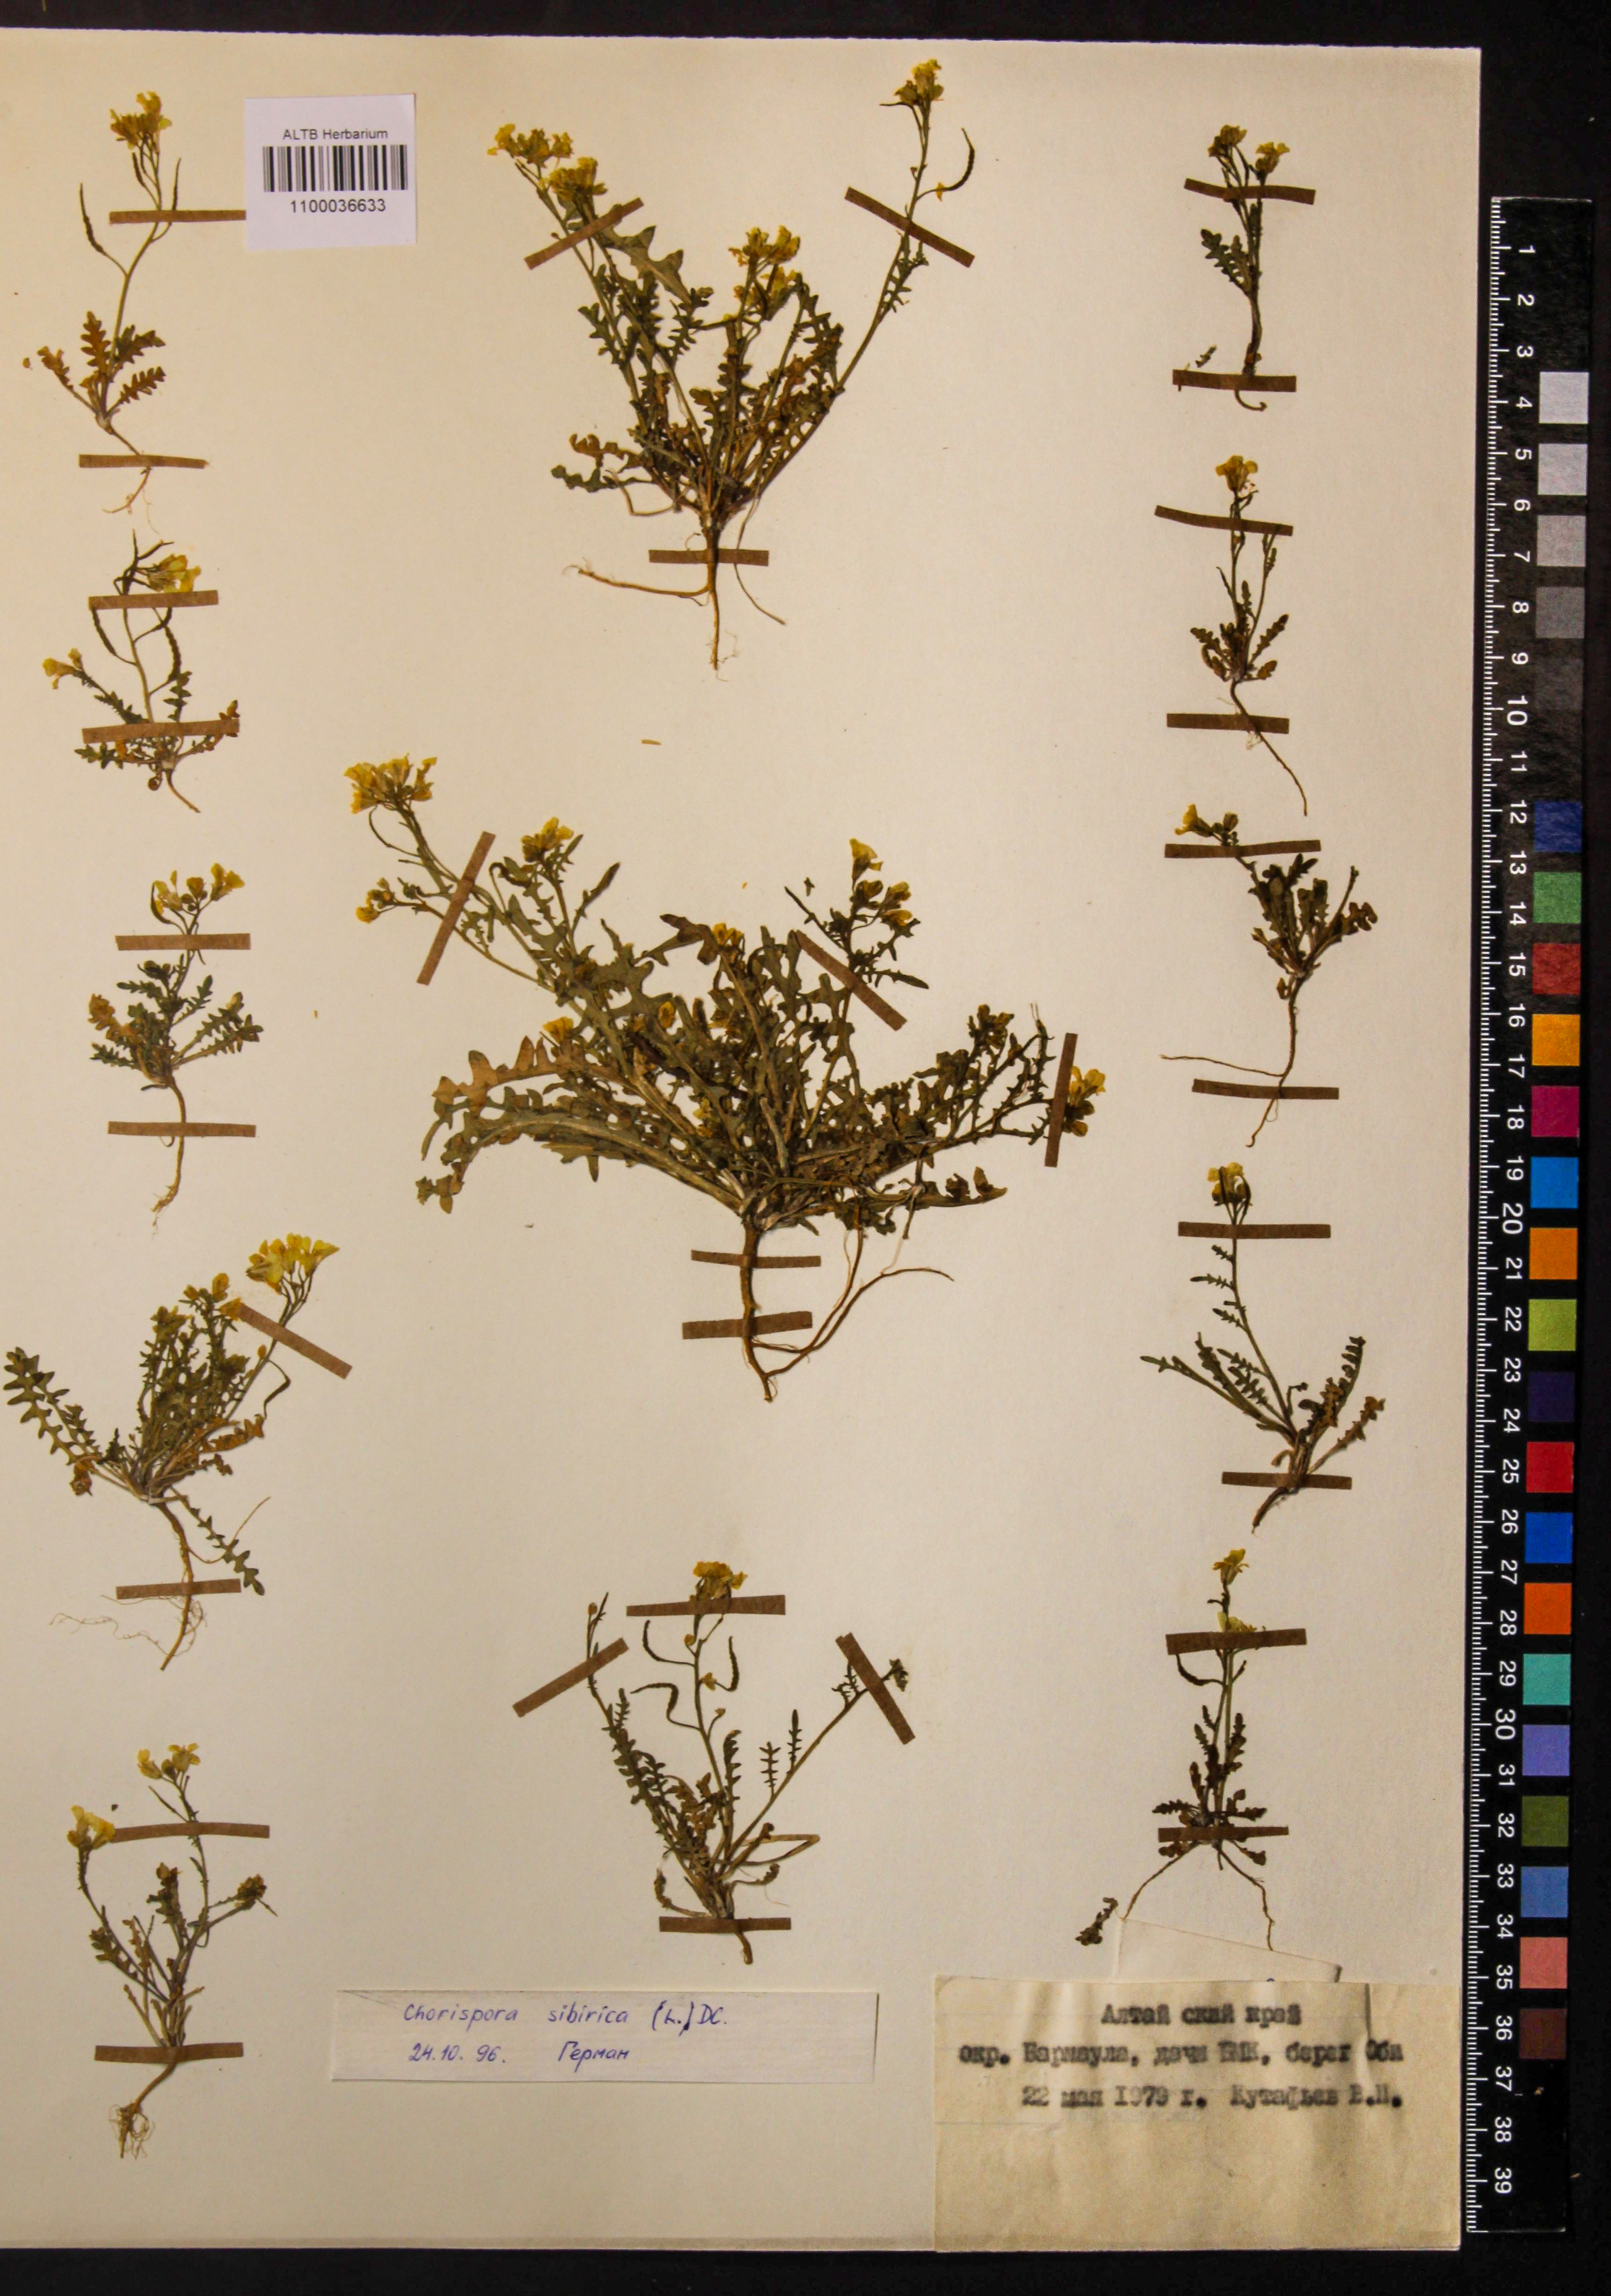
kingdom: Plantae
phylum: Tracheophyta
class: Magnoliopsida
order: Brassicales
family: Brassicaceae
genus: Chorispora
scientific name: Chorispora sibirica
